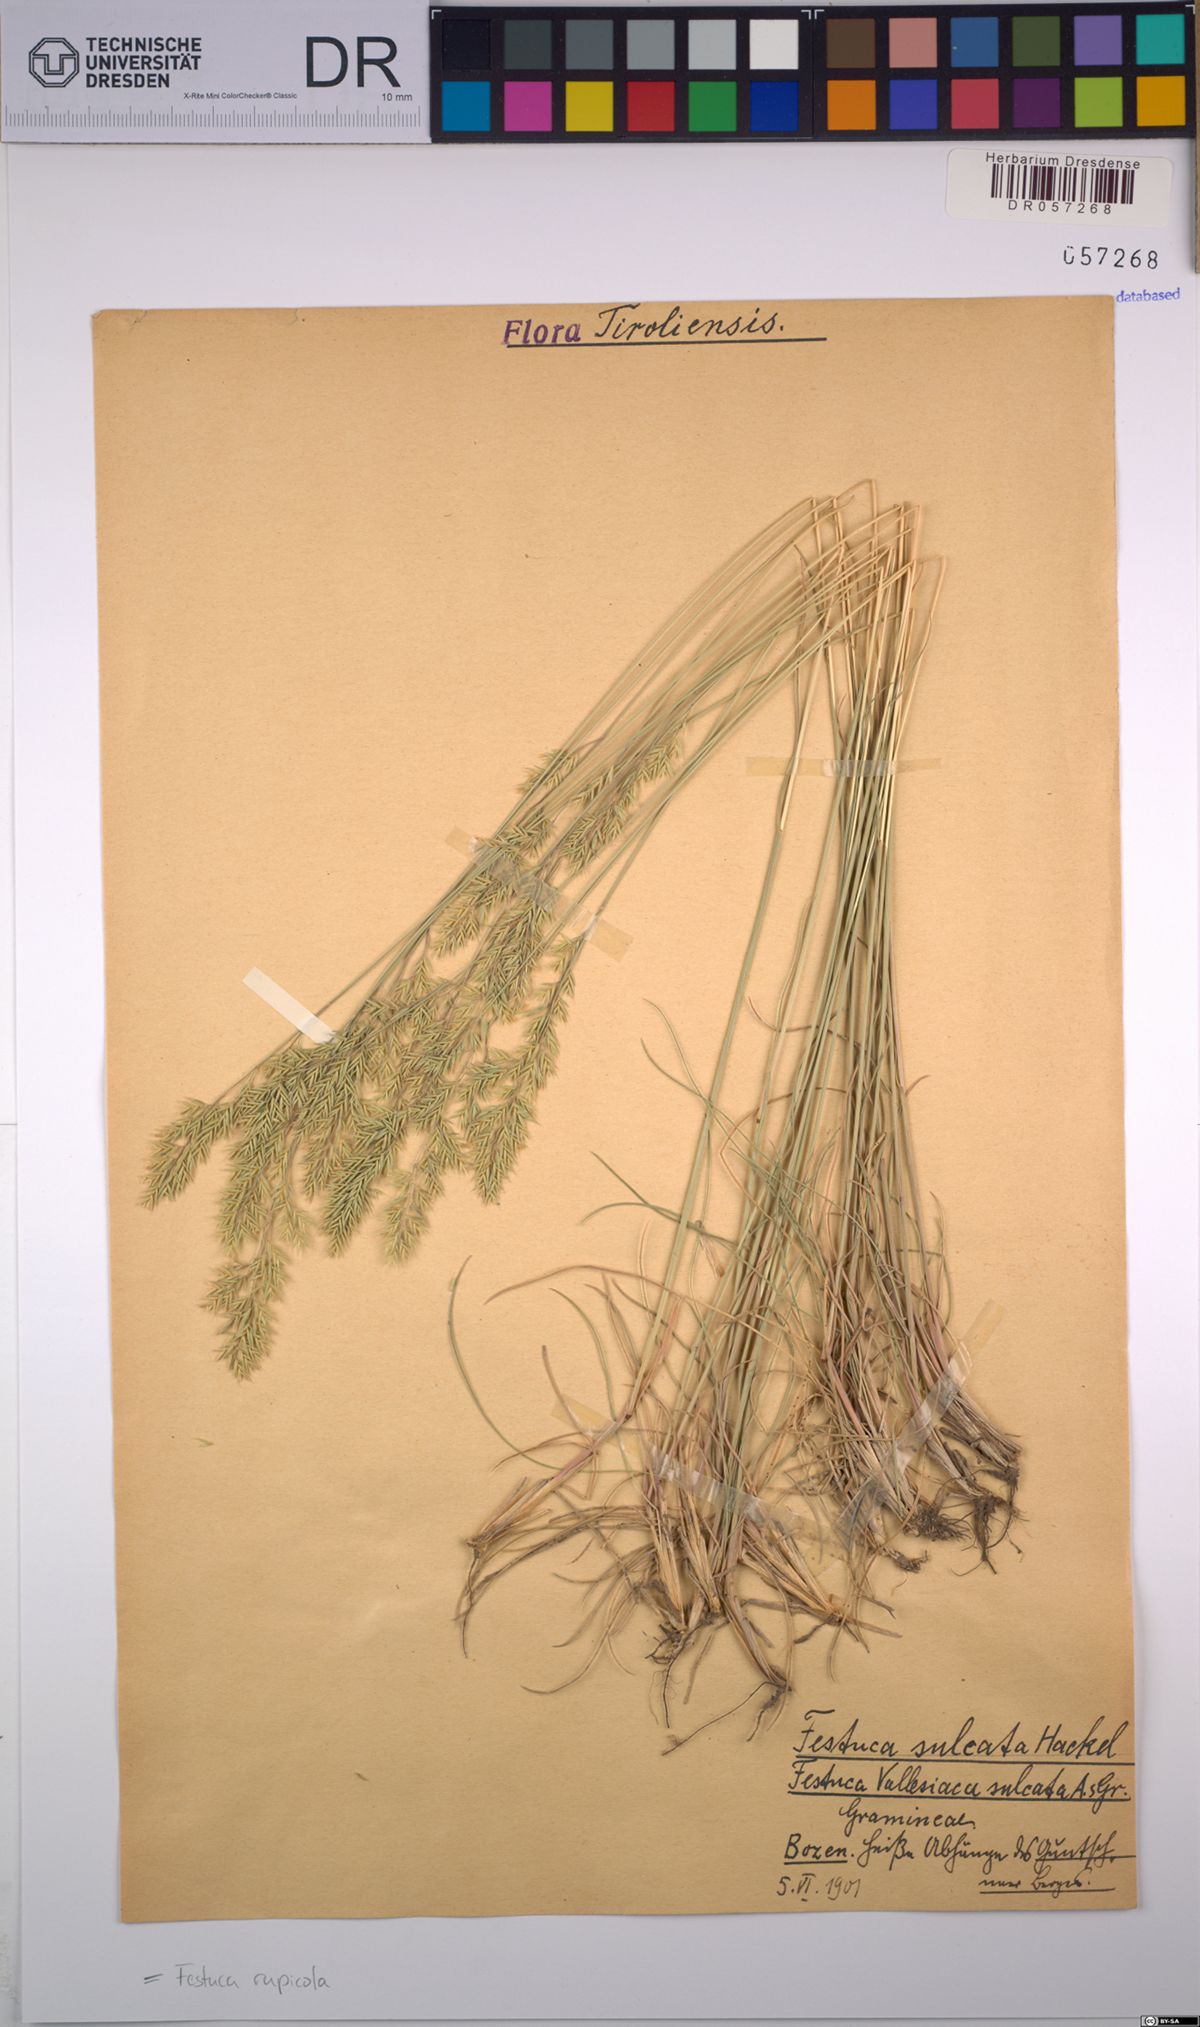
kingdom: Plantae
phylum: Tracheophyta
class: Liliopsida
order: Poales
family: Poaceae
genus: Festuca
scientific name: Festuca rupicola
